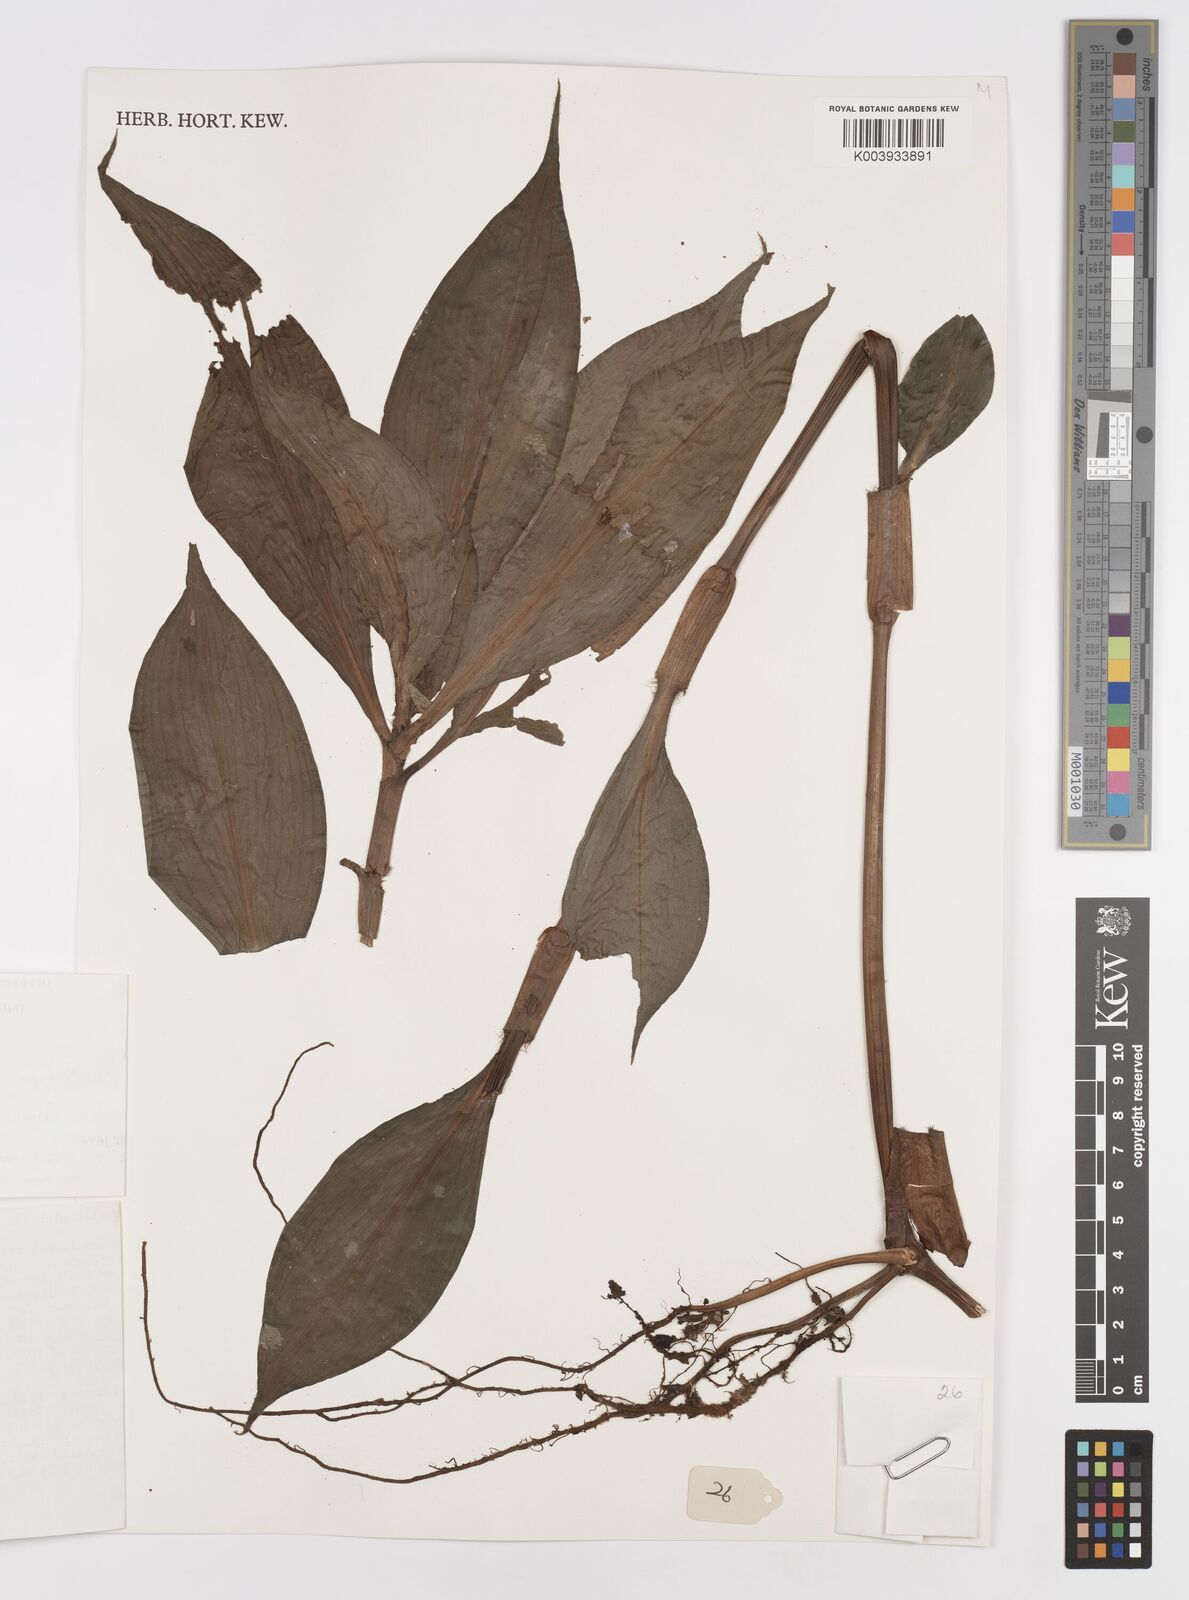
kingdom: Plantae
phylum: Tracheophyta
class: Liliopsida
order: Commelinales
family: Commelinaceae
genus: Amischotolype
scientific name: Amischotolype glabrata
